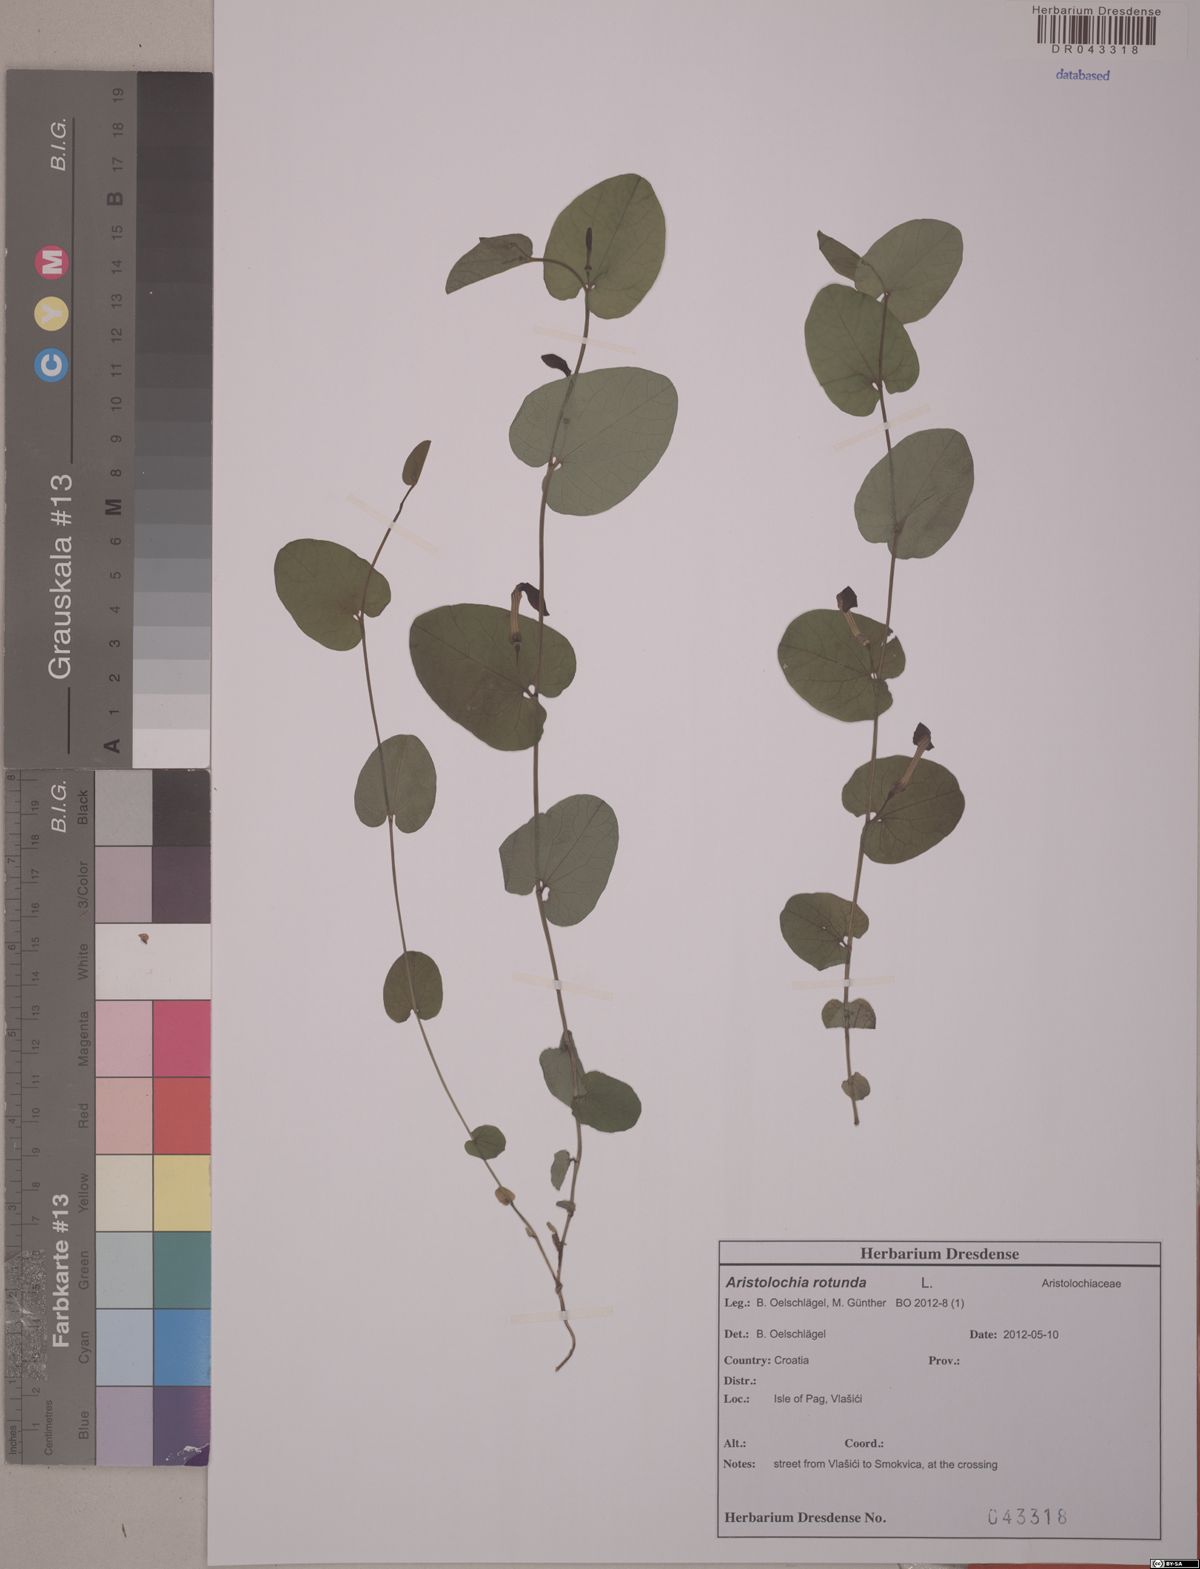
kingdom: Plantae
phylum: Tracheophyta
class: Magnoliopsida
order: Piperales
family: Aristolochiaceae
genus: Aristolochia
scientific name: Aristolochia rotunda
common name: Smearwort
